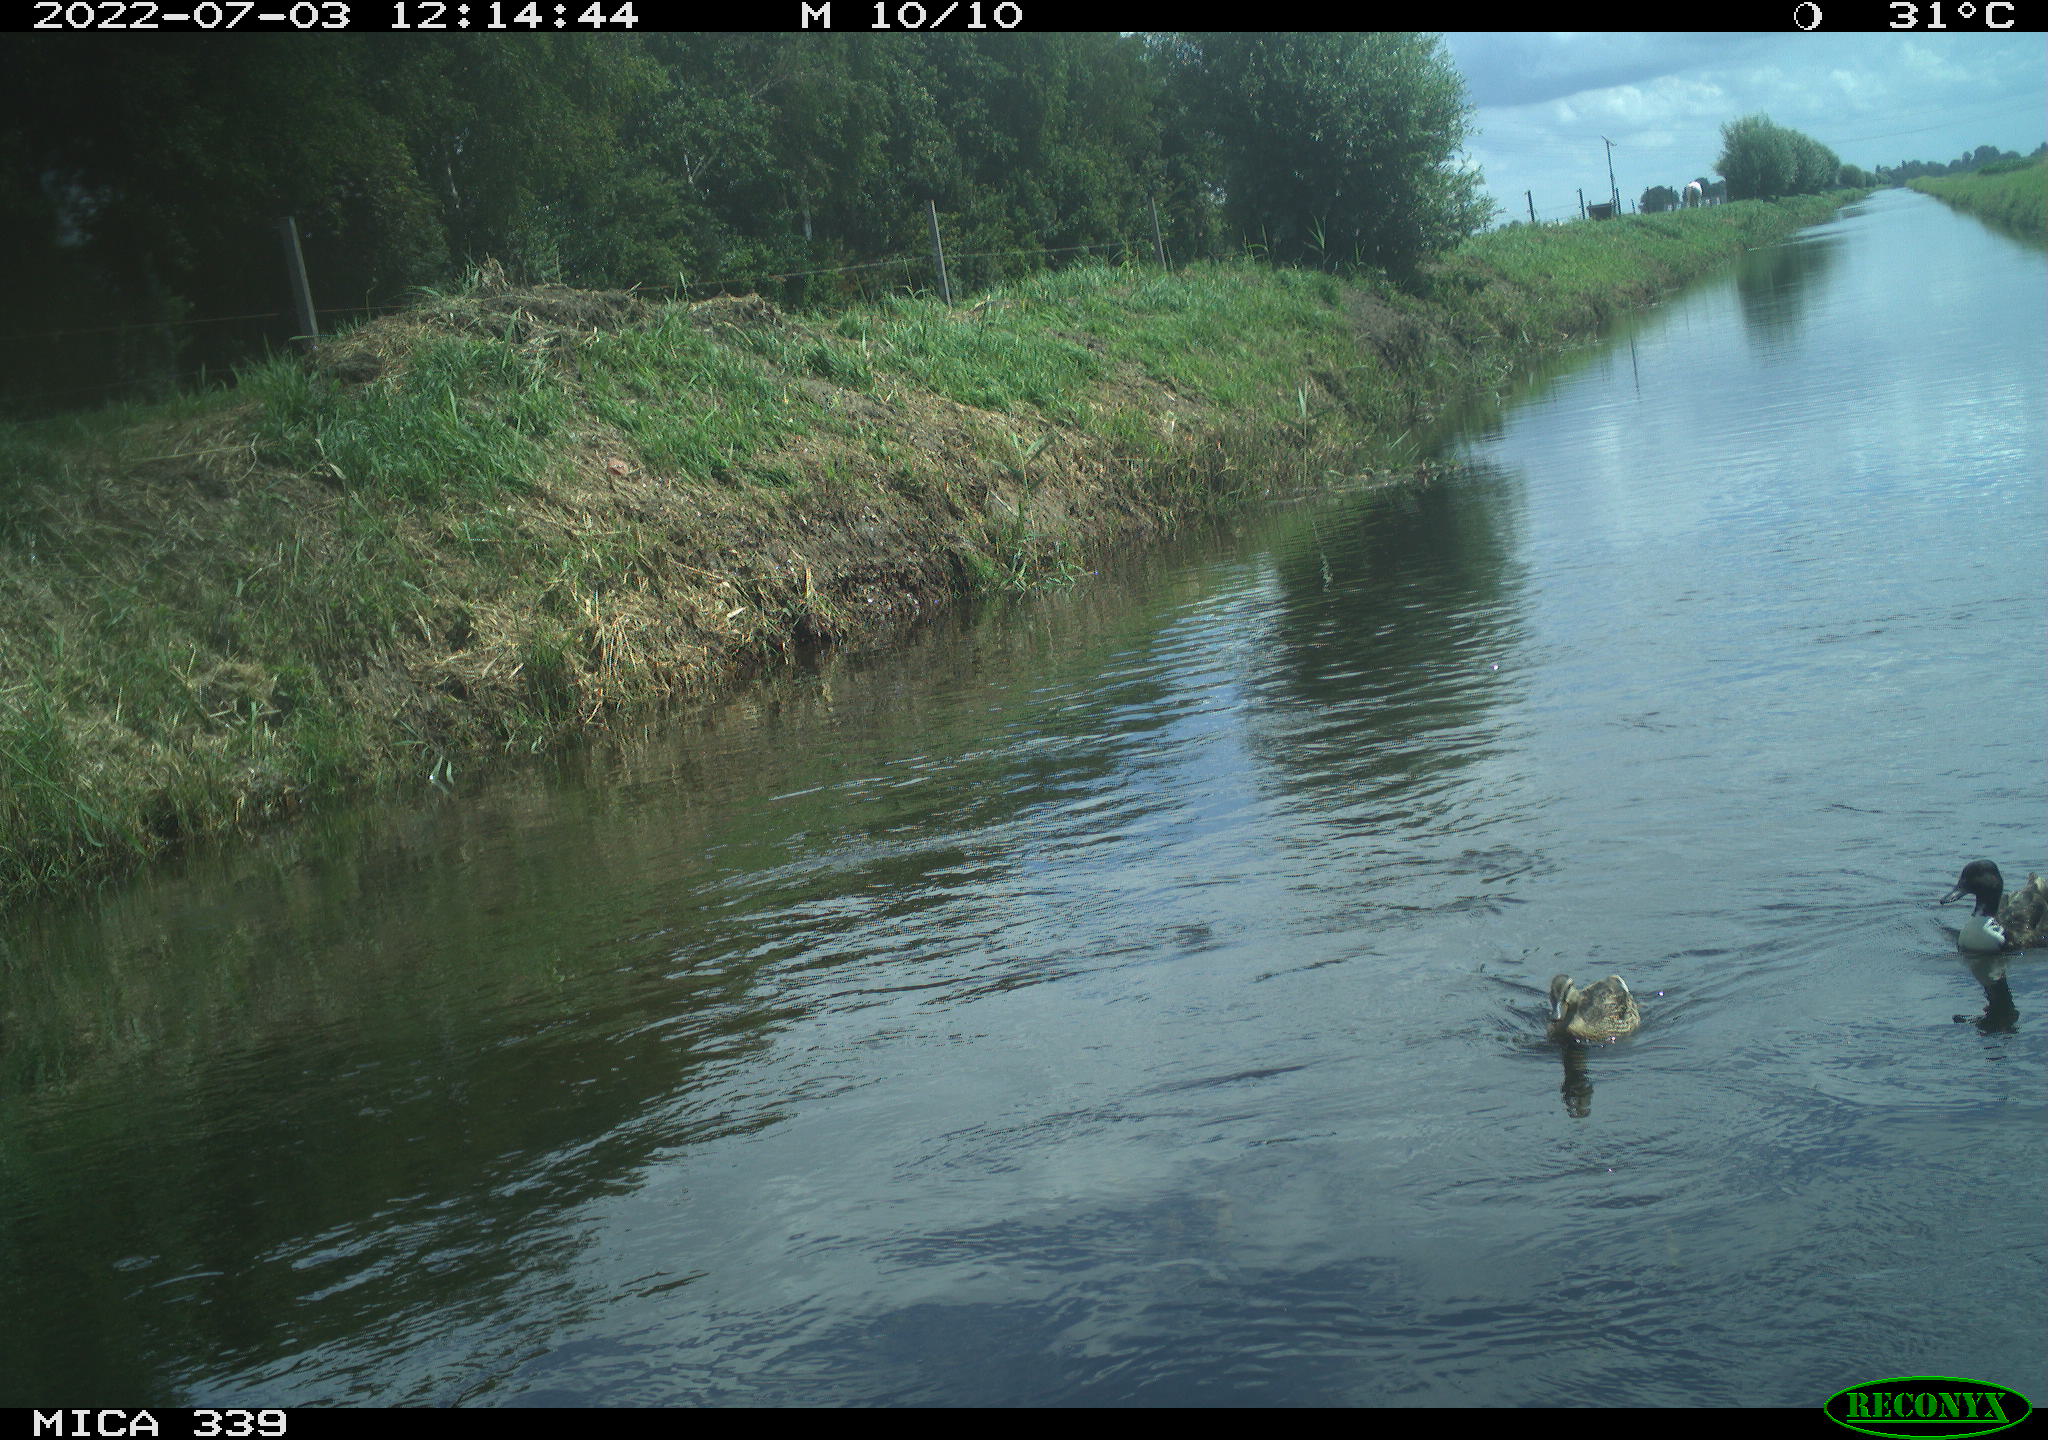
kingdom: Animalia
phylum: Chordata
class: Aves
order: Anseriformes
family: Anatidae
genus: Anas
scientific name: Anas platyrhynchos
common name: Mallard
